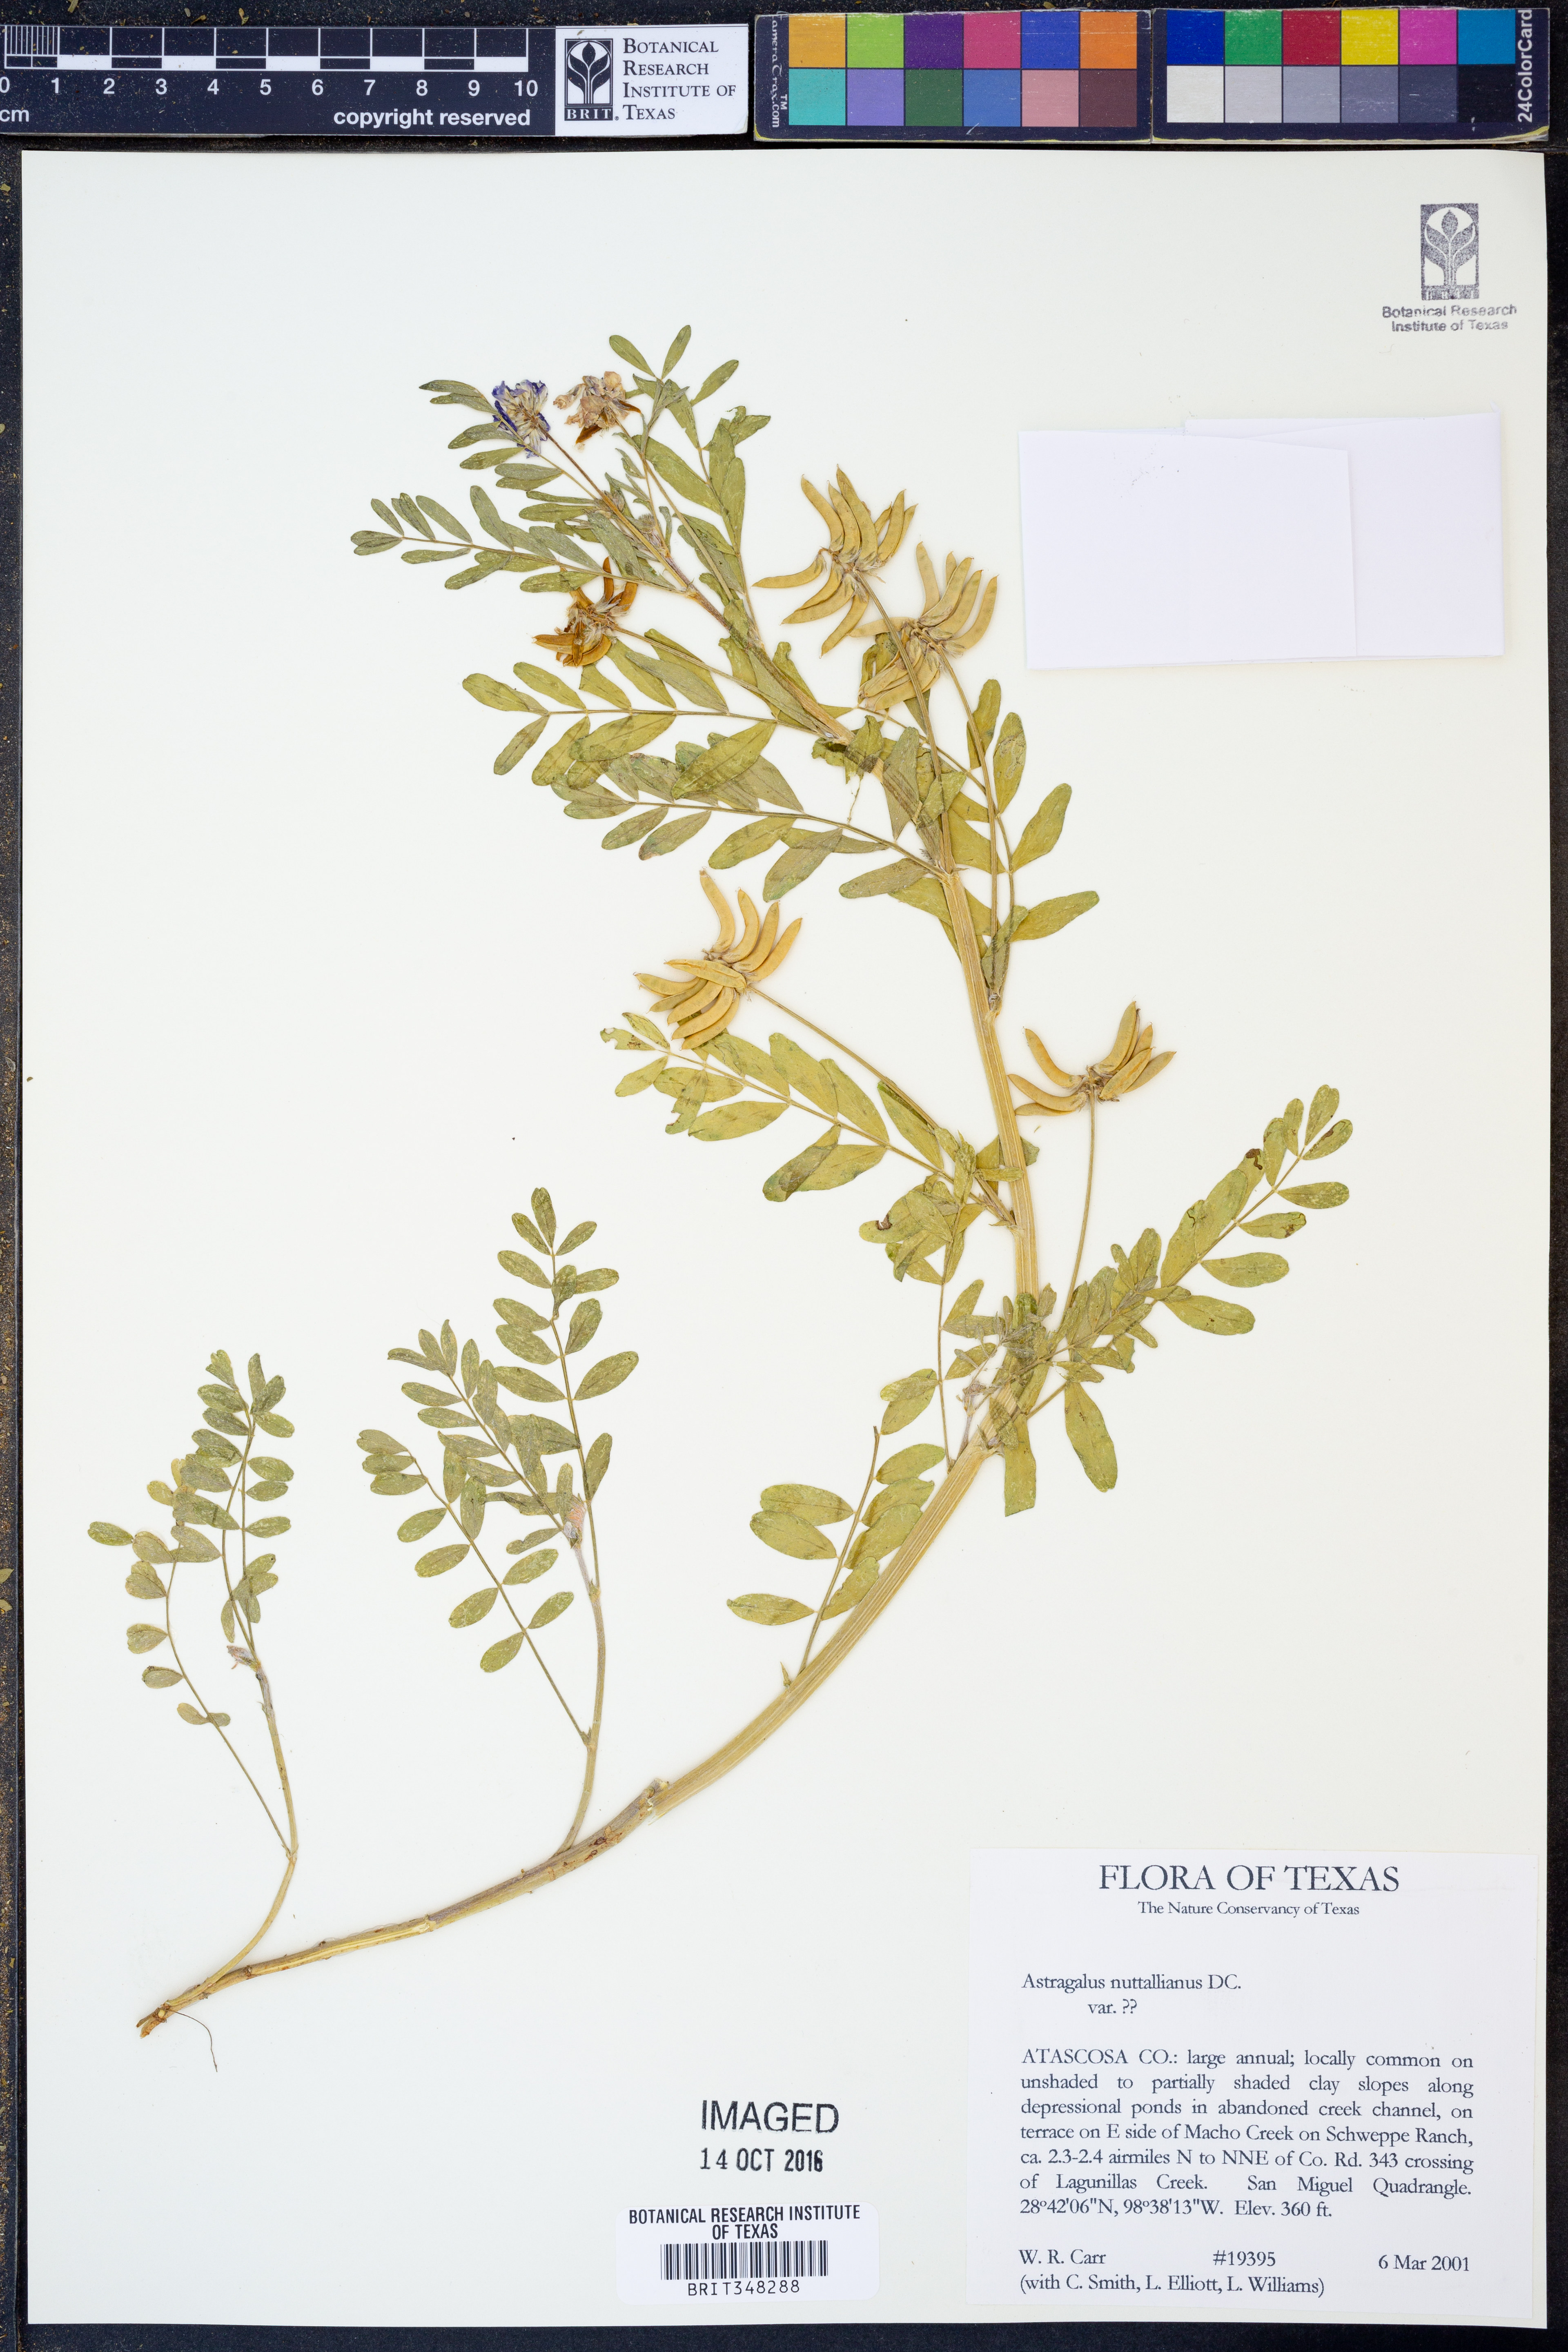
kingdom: Plantae
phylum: Tracheophyta
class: Magnoliopsida
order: Fabales
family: Fabaceae
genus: Astragalus
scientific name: Astragalus nuttallianus
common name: Smallflowered milkvetch
